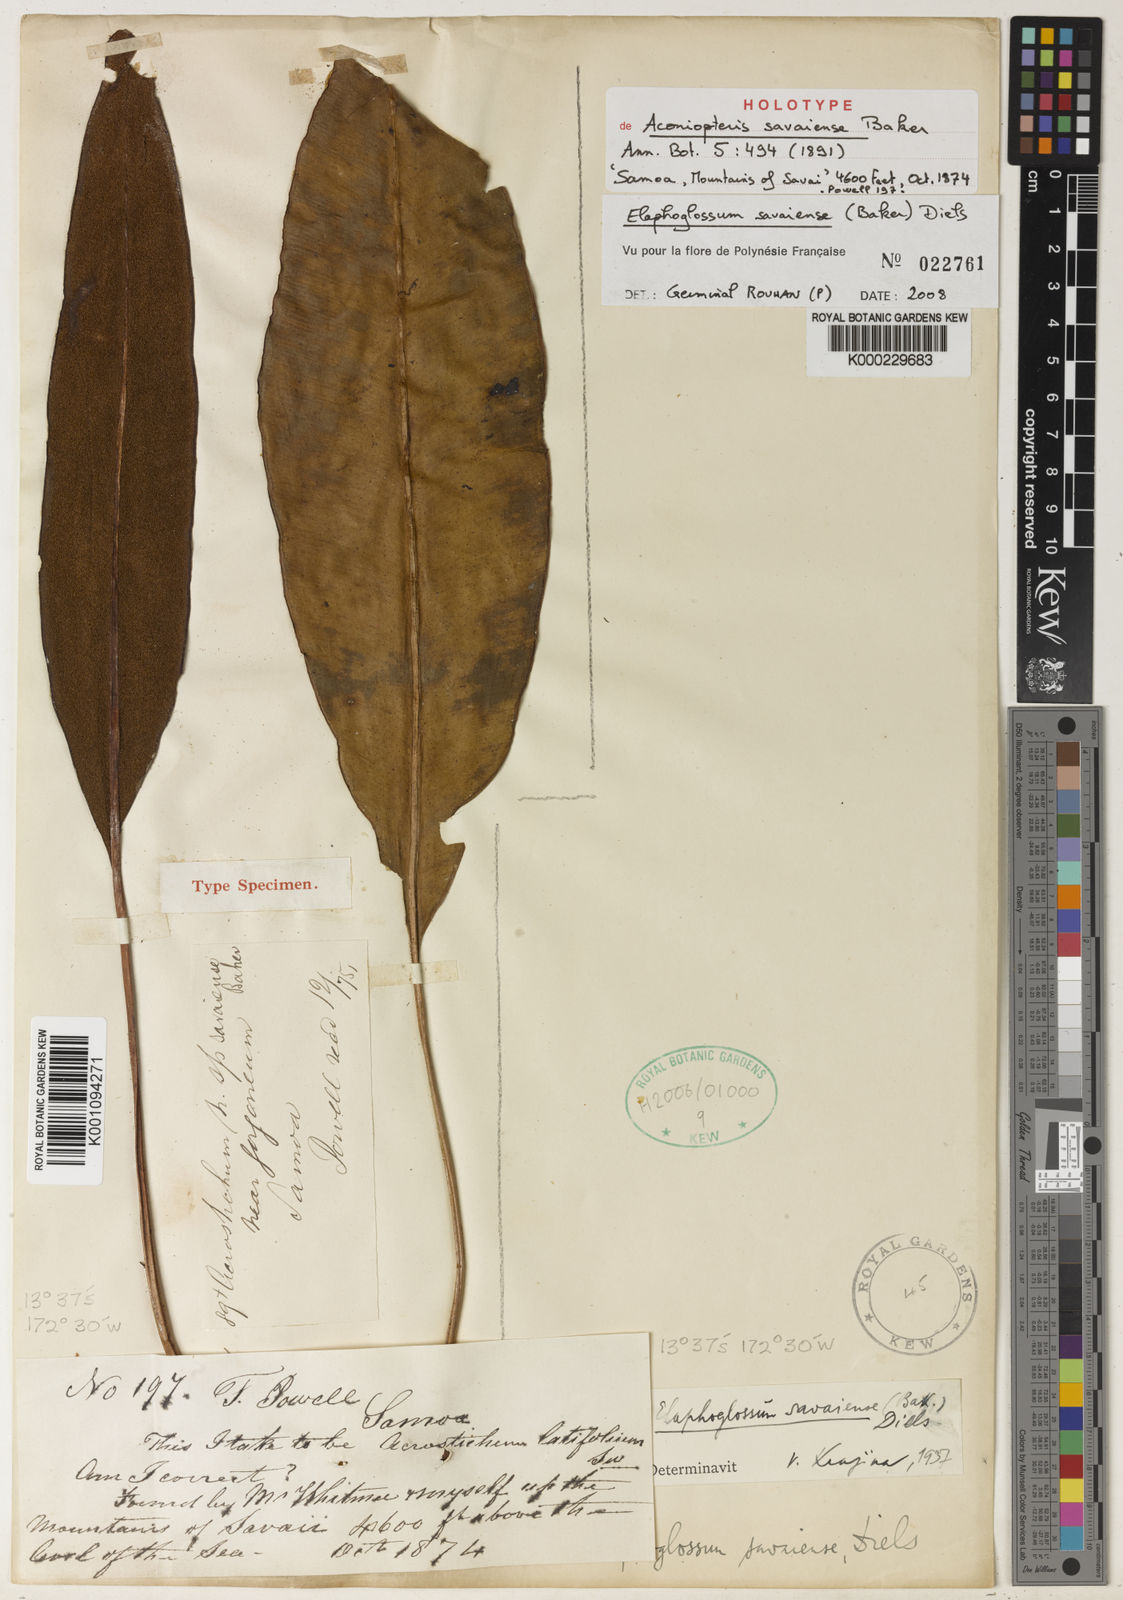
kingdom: Plantae
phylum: Tracheophyta
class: Polypodiopsida
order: Polypodiales
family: Dryopteridaceae
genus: Elaphoglossum
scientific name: Elaphoglossum savaiense
